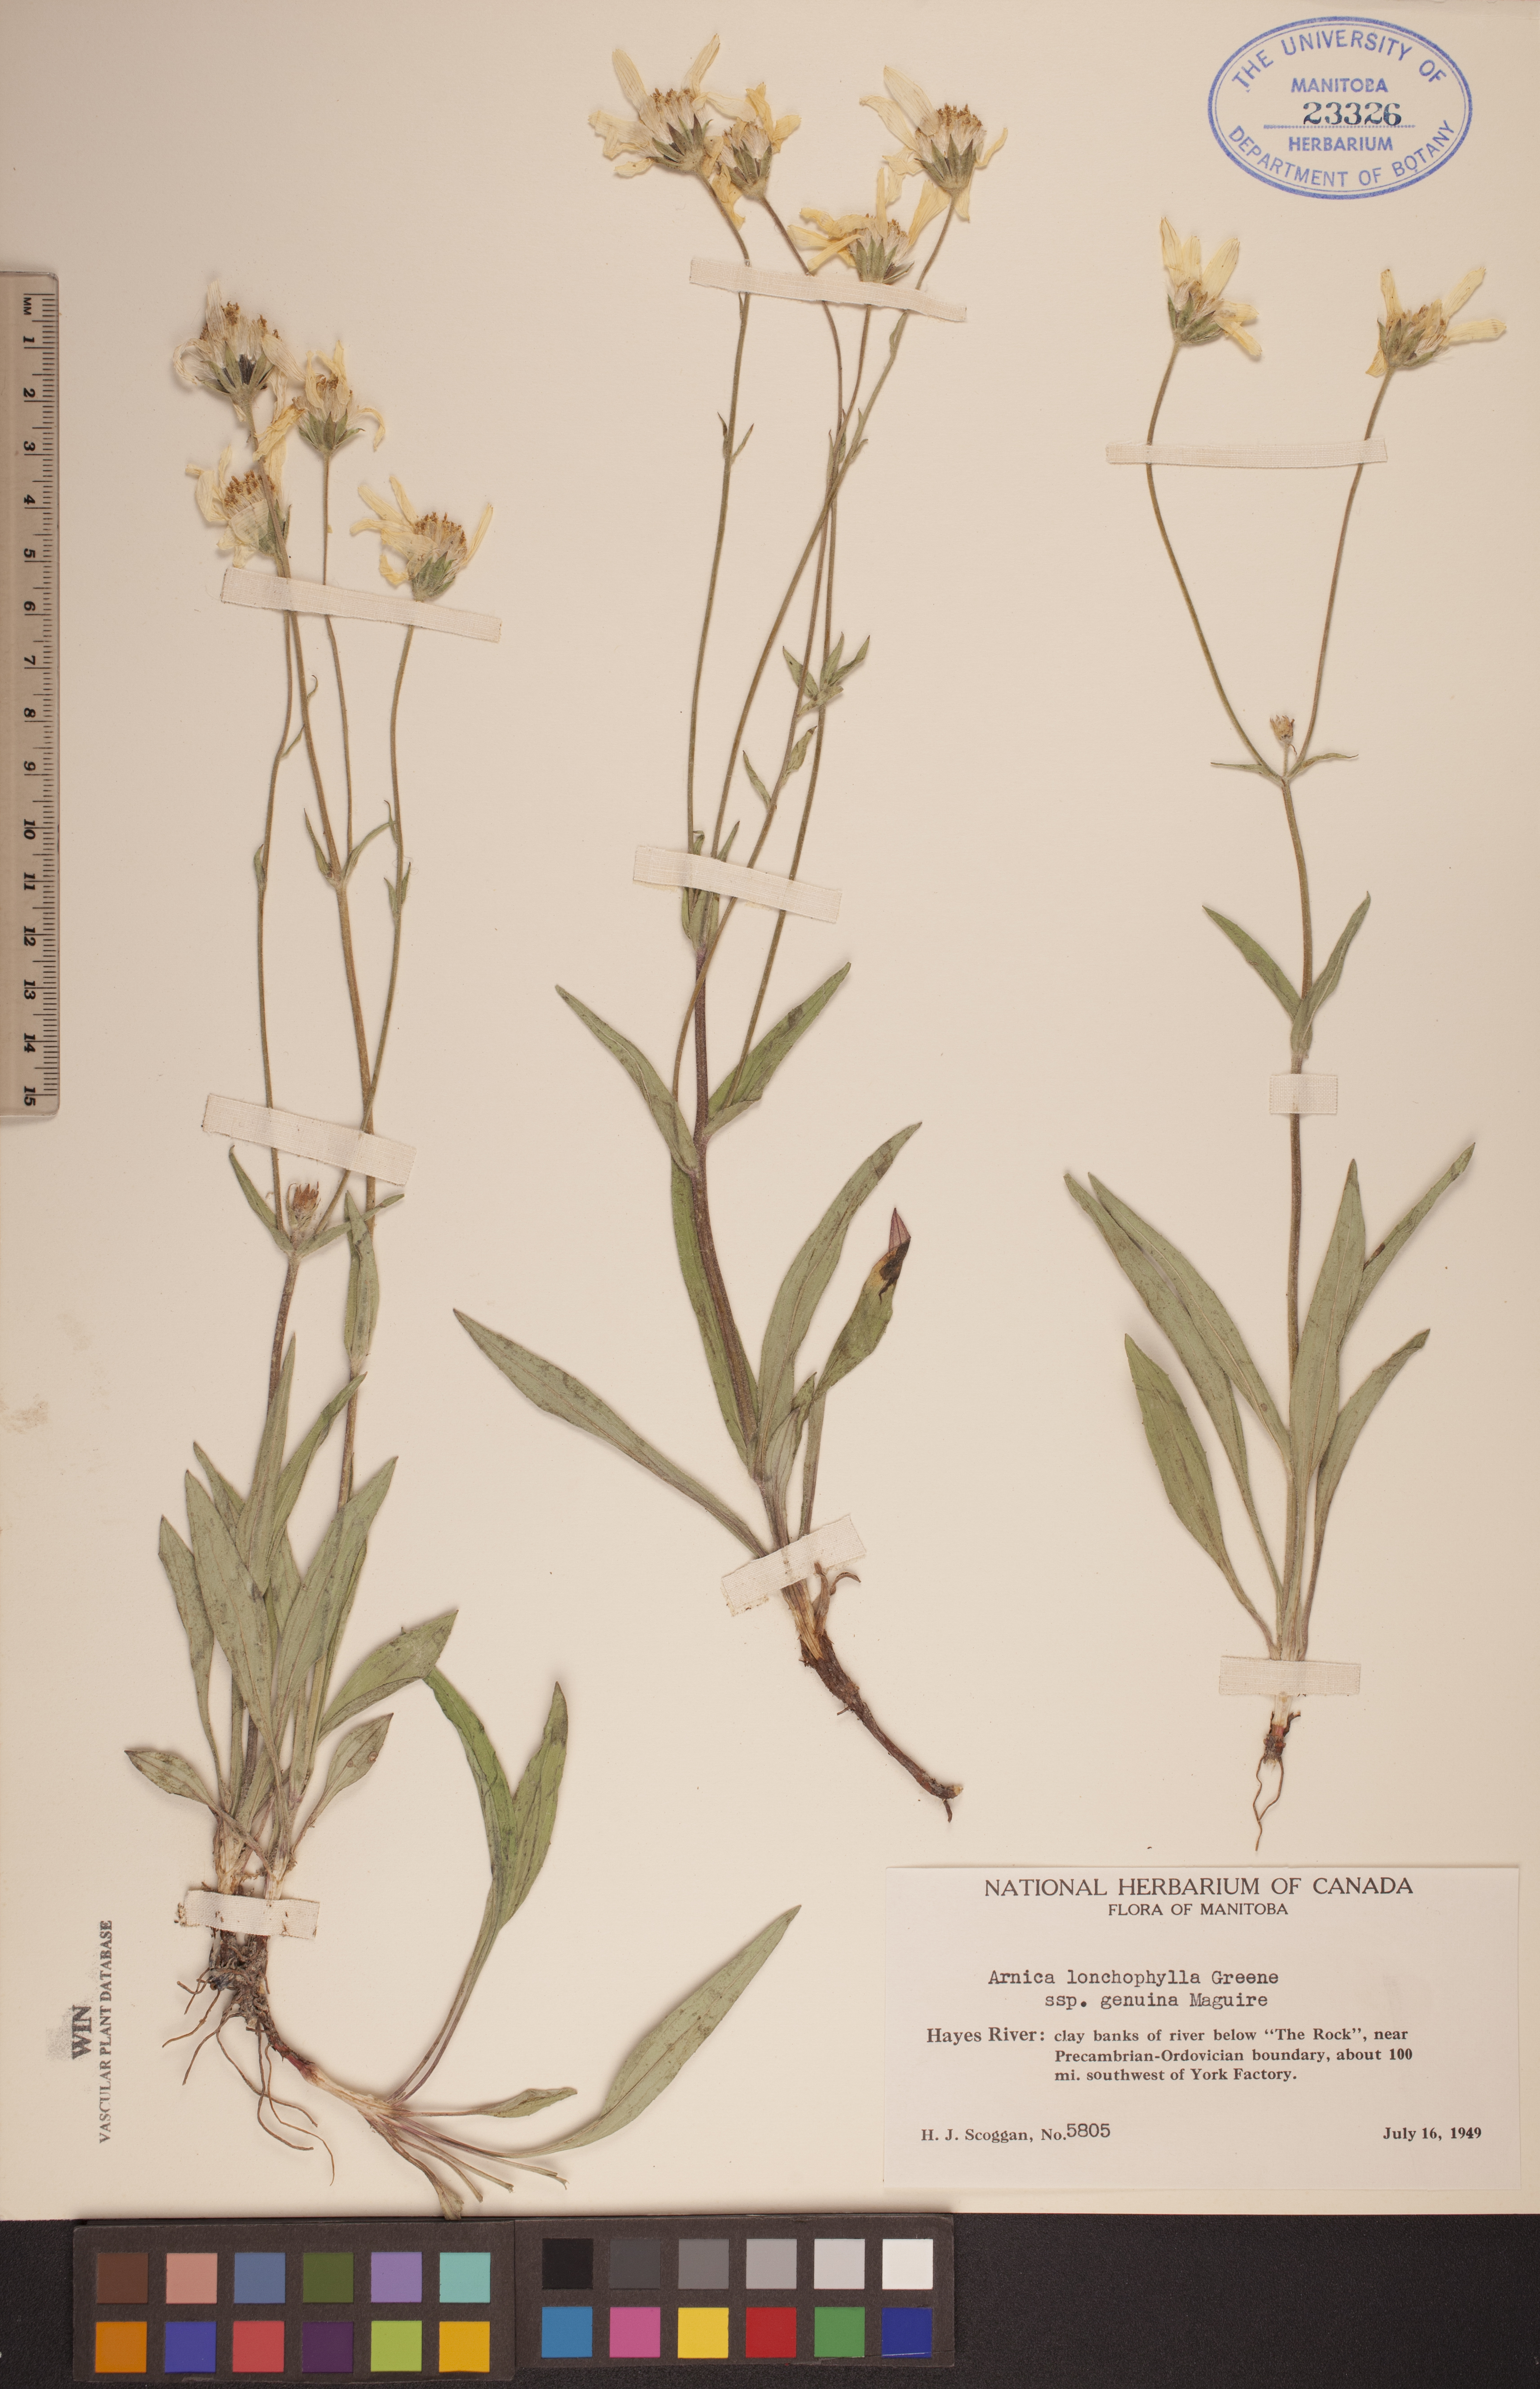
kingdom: Plantae
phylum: Tracheophyta
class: Magnoliopsida
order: Asterales
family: Asteraceae
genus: Arnica
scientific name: Arnica lonchophylla
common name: Northern arnica
